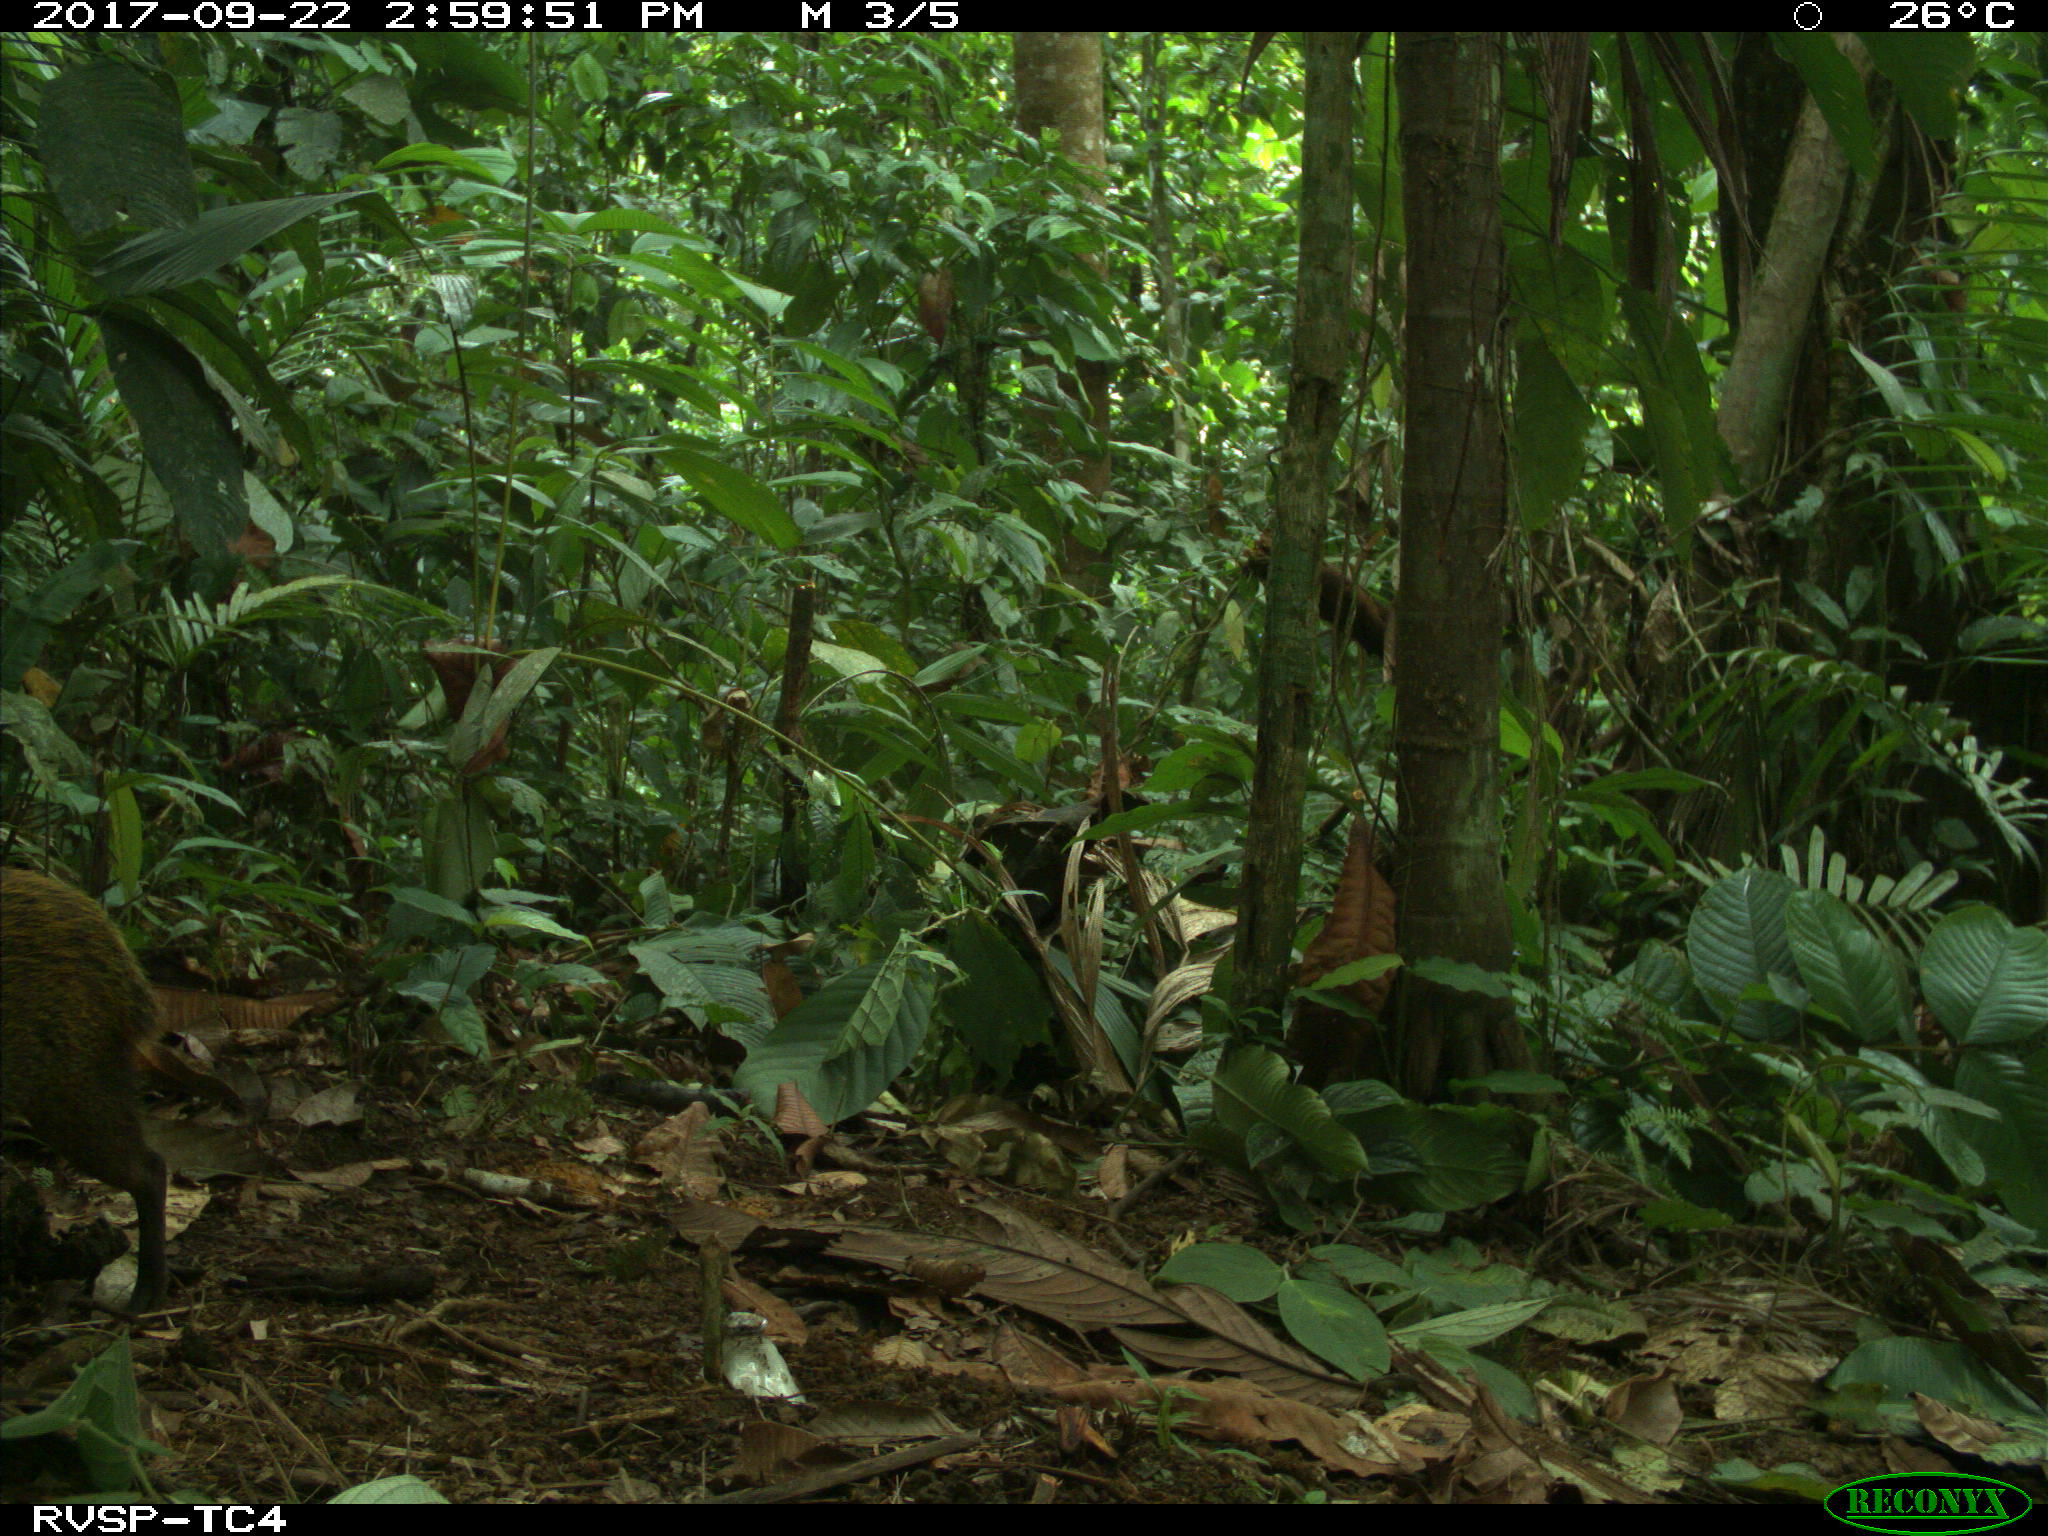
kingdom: Animalia
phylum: Chordata
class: Mammalia
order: Rodentia
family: Dasyproctidae
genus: Dasyprocta
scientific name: Dasyprocta punctata
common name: Central american agouti
